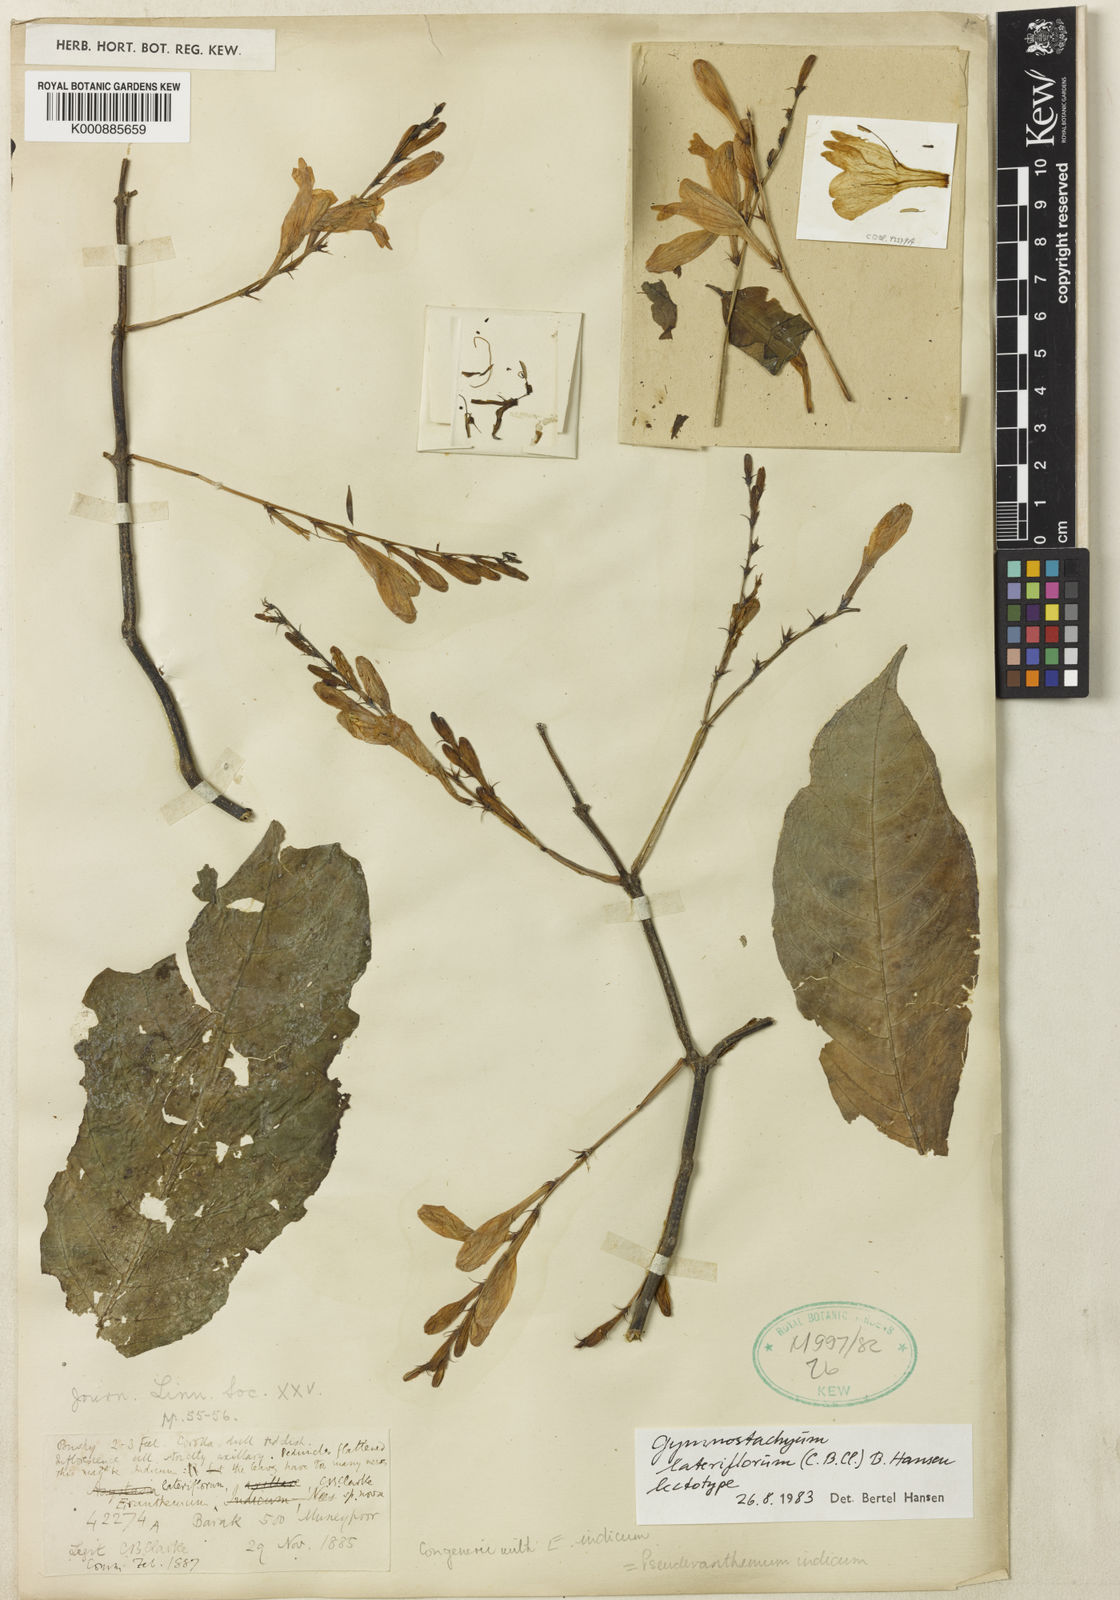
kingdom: Plantae
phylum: Tracheophyta
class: Magnoliopsida
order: Lamiales
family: Acanthaceae
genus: Gymnostachyum
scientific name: Gymnostachyum lateriflorum
